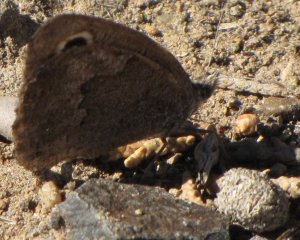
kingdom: Animalia
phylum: Arthropoda
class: Insecta
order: Lepidoptera
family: Nymphalidae
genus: Cercyonis
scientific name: Cercyonis sthenele
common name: Great Basin Wood-Nymph
